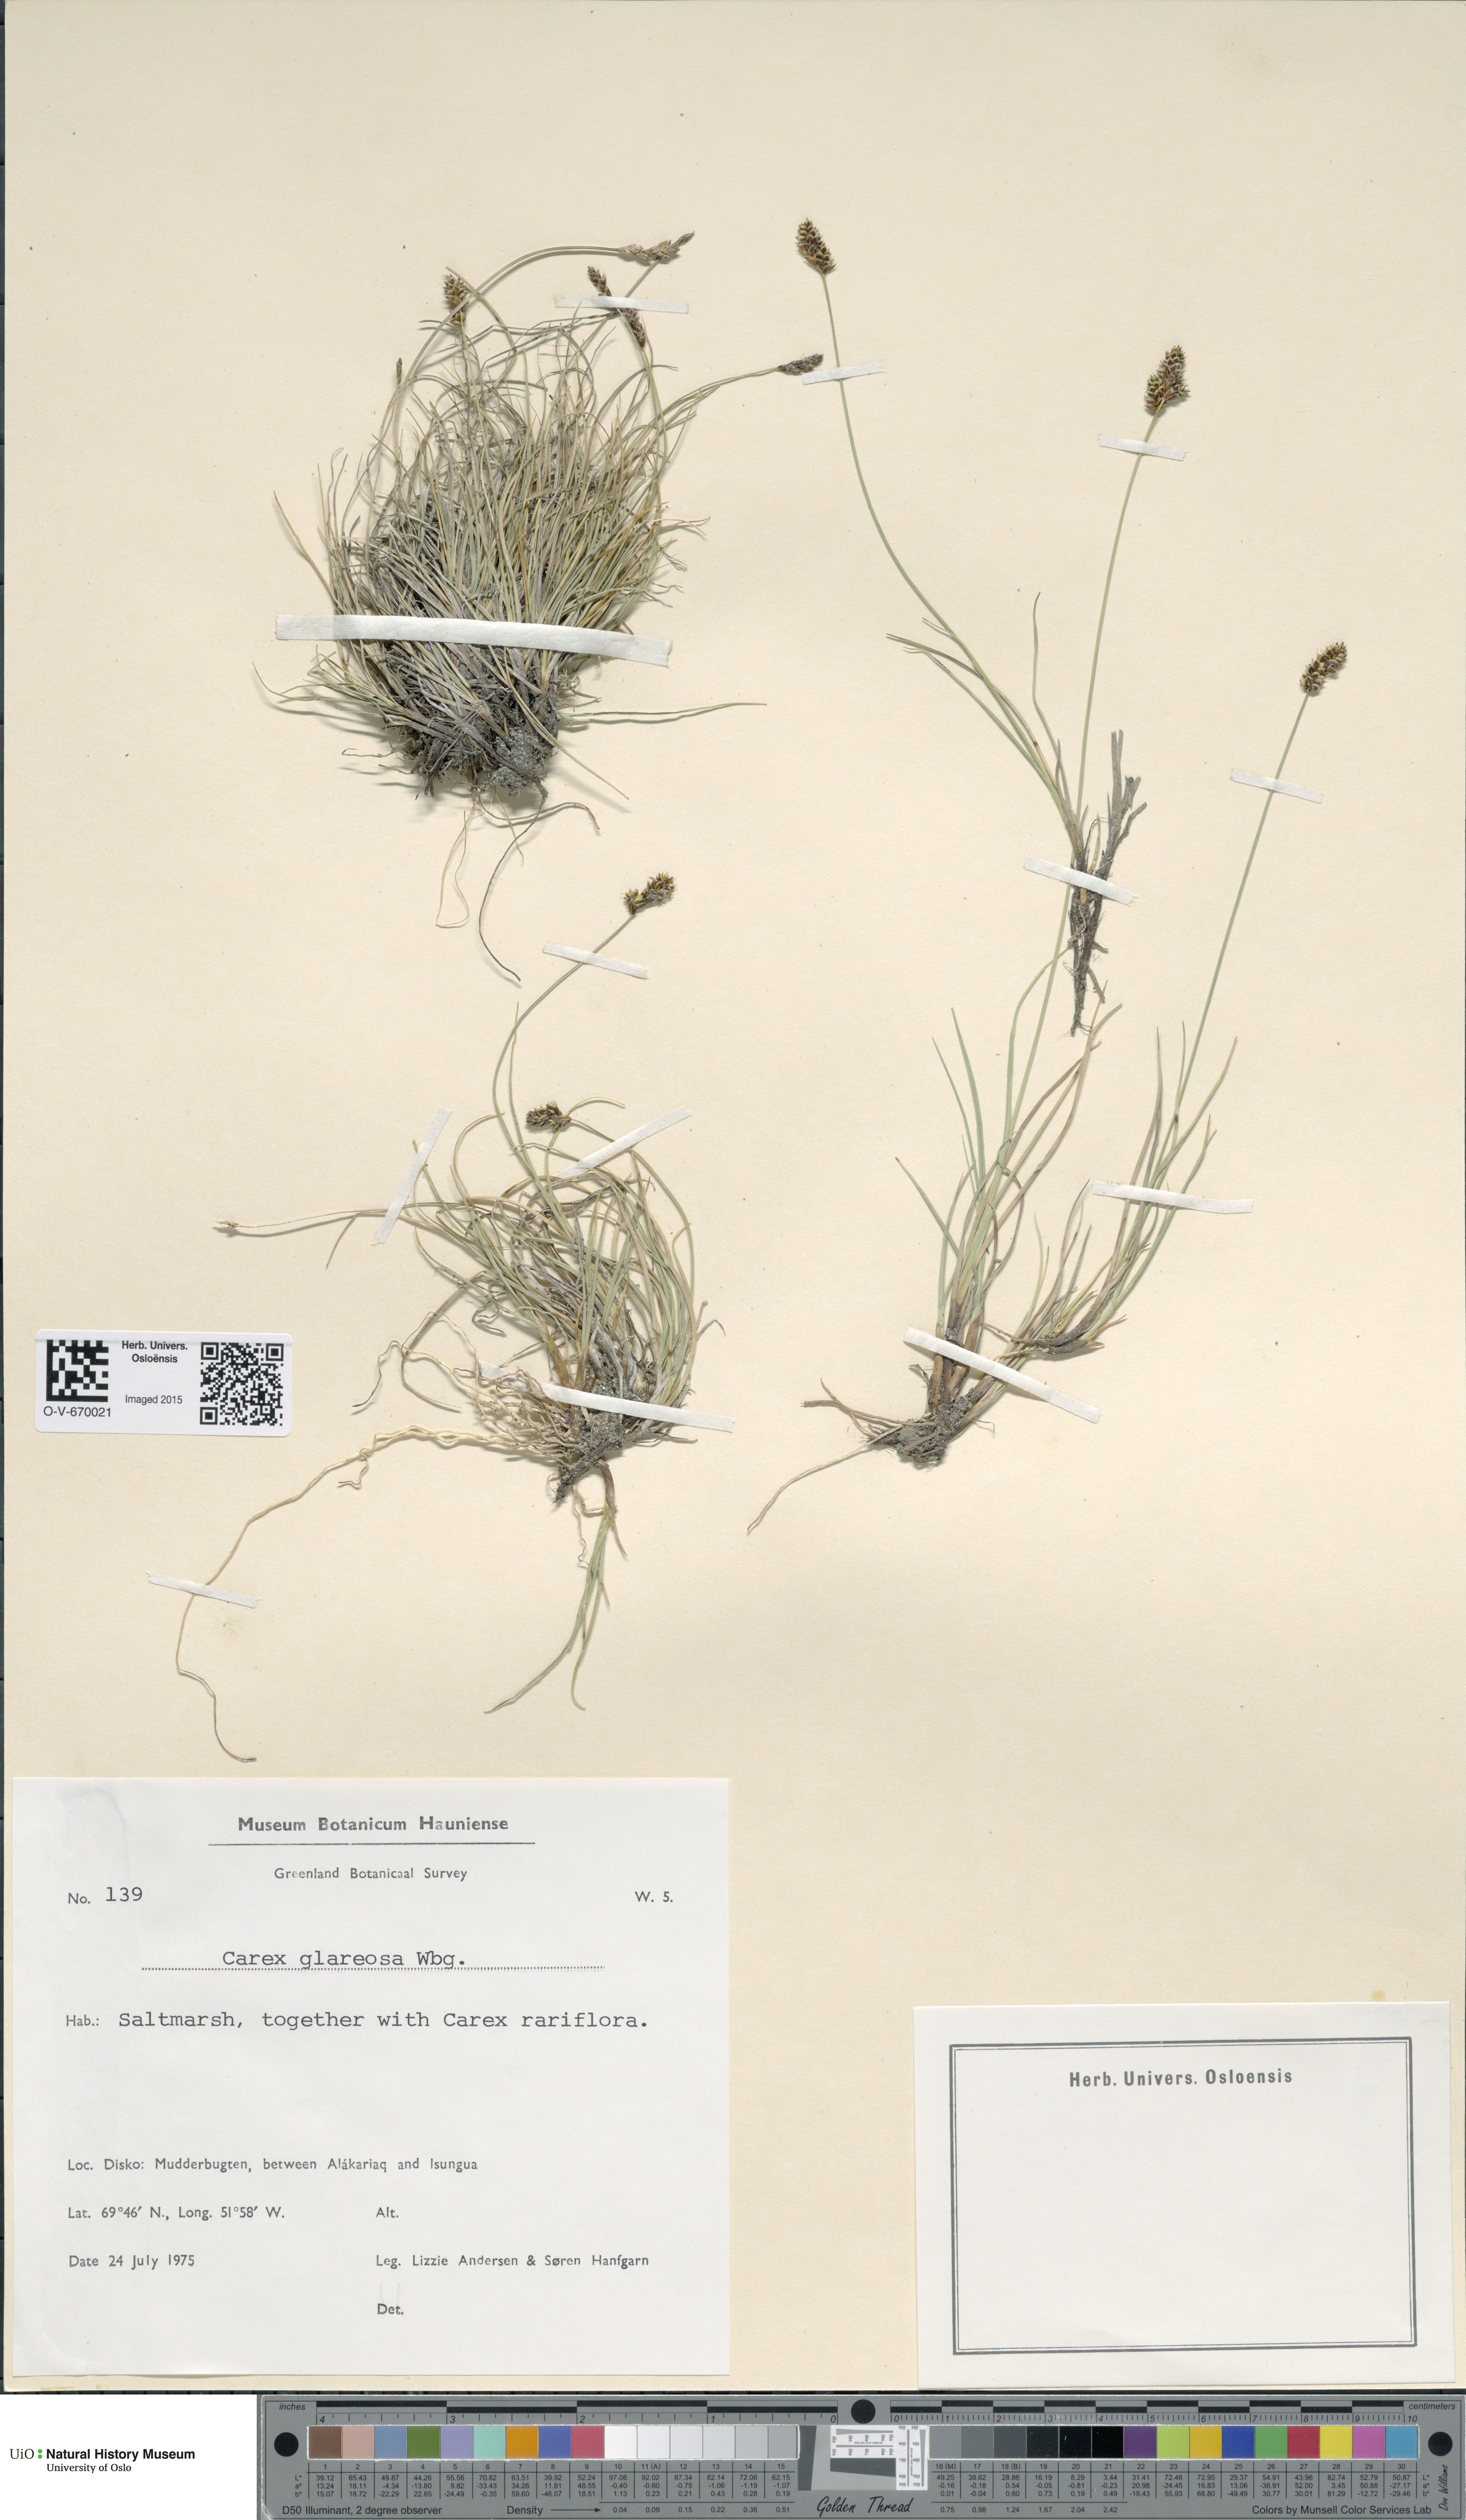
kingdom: Plantae
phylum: Tracheophyta
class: Liliopsida
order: Poales
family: Cyperaceae
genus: Carex
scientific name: Carex glareosa
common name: Clustered sedge
